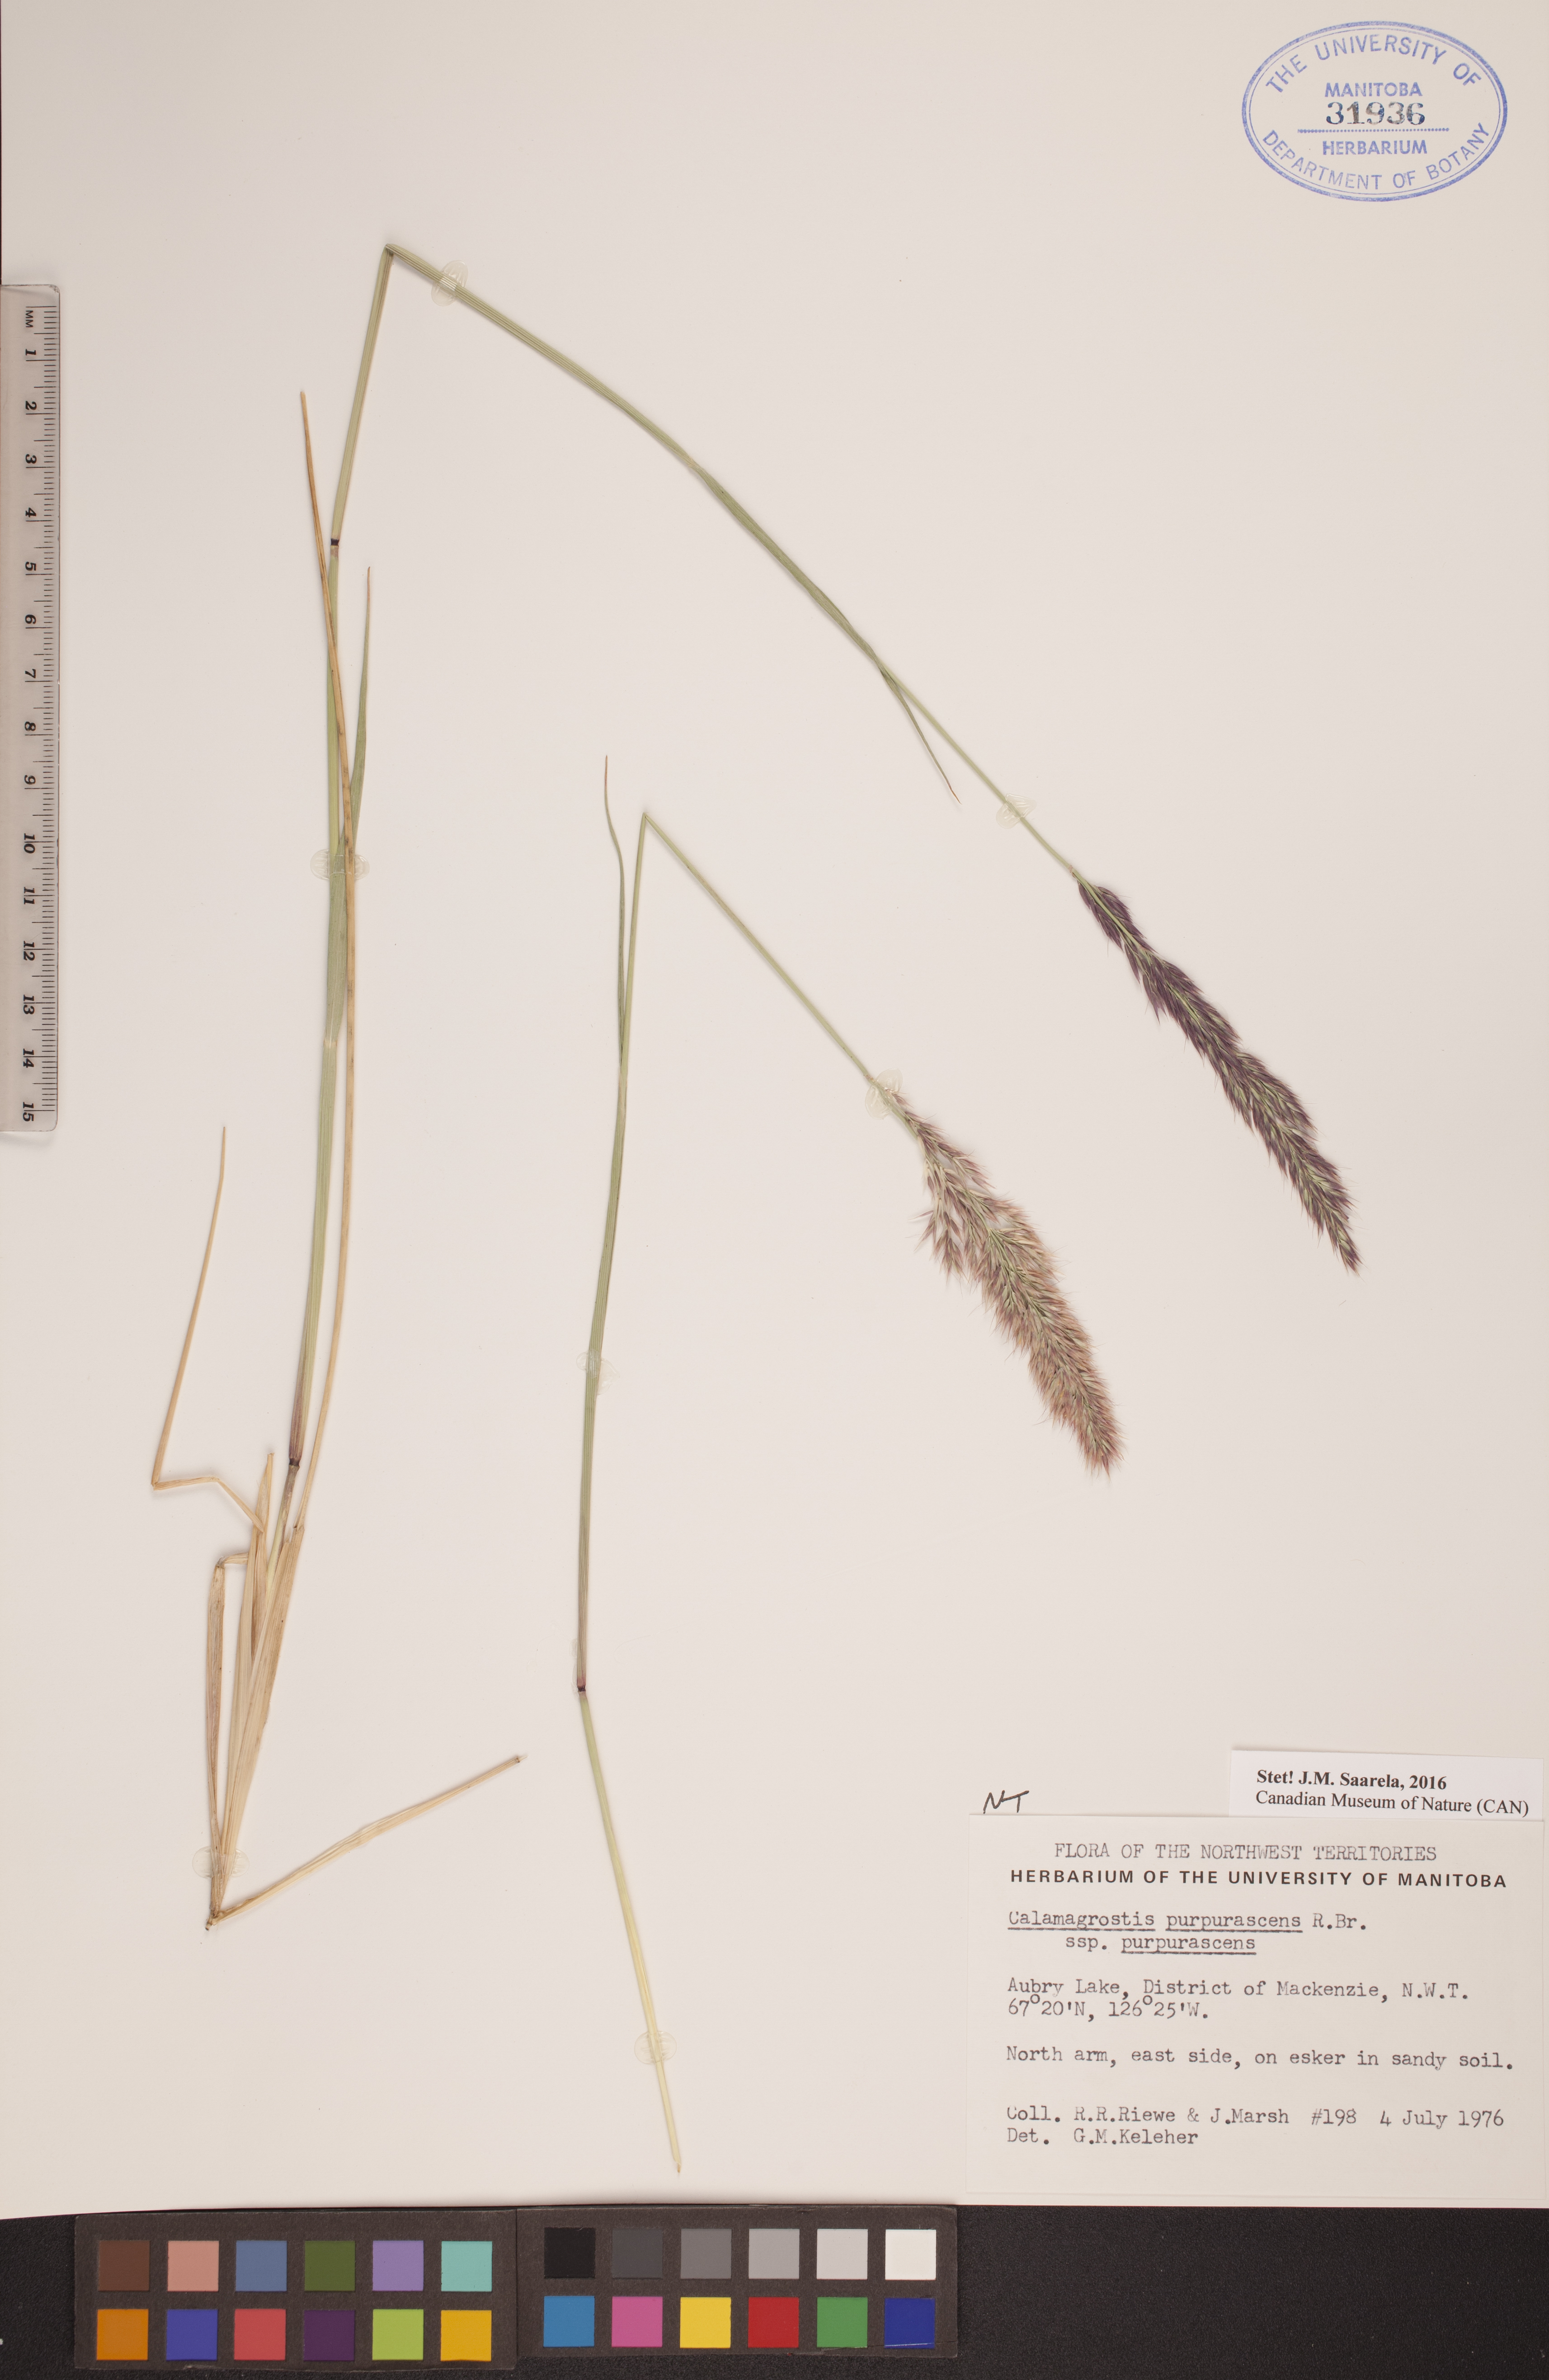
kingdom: Plantae
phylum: Tracheophyta
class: Liliopsida
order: Poales
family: Poaceae
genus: Calamagrostis
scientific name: Calamagrostis purpurascens
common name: Purple reedgrass
